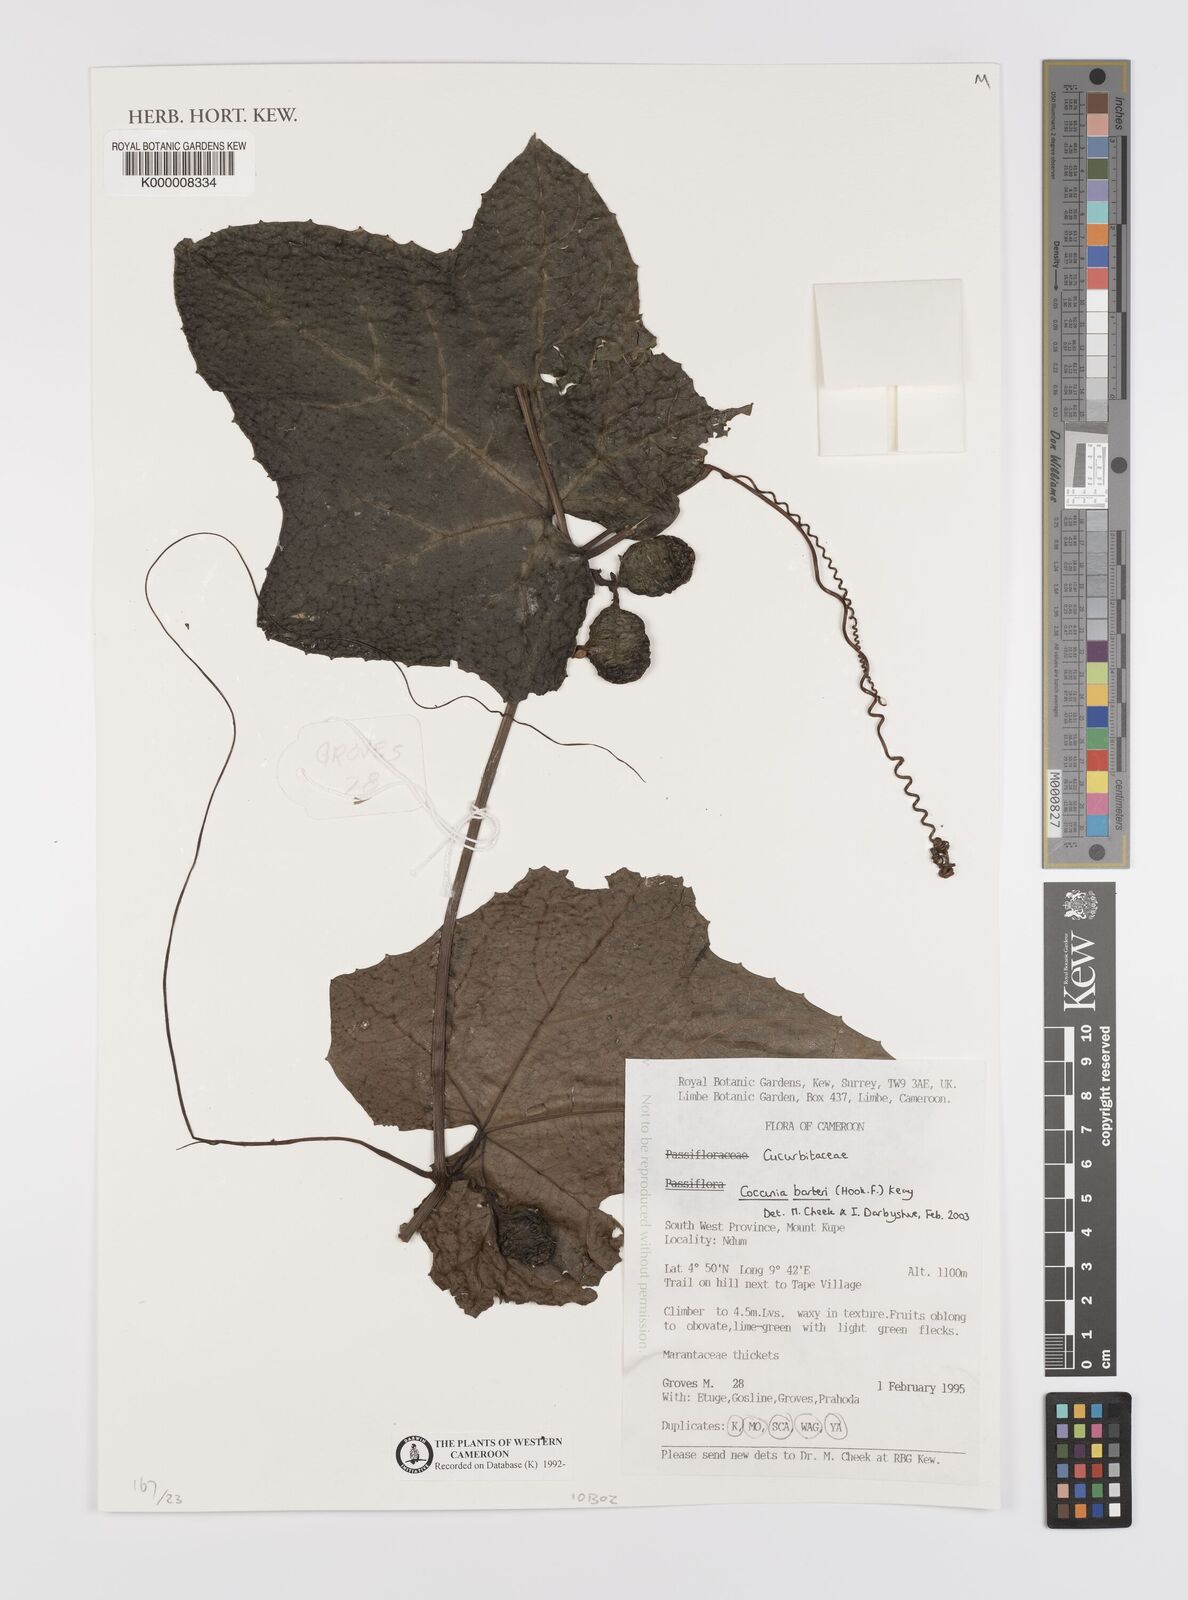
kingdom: Plantae
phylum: Tracheophyta
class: Magnoliopsida
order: Cucurbitales
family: Cucurbitaceae
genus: Coccinia
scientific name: Coccinia barteri
